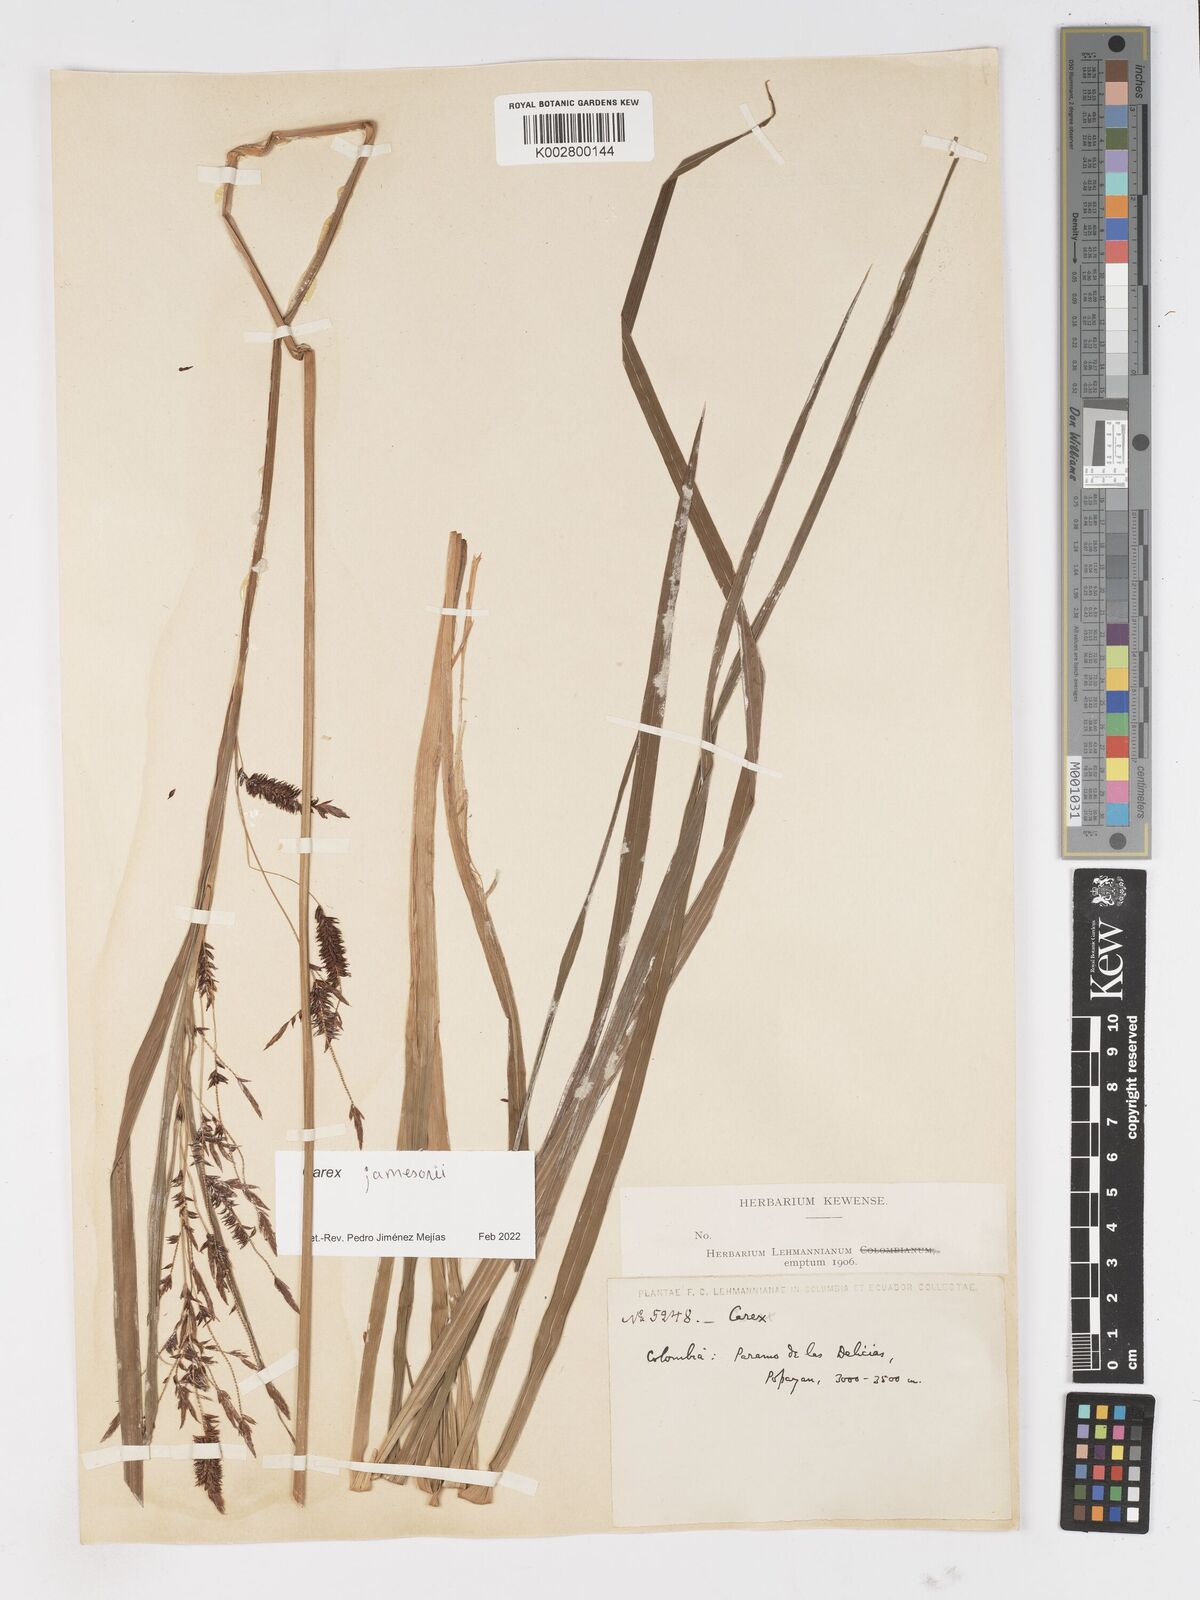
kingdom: Plantae
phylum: Tracheophyta
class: Liliopsida
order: Poales
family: Cyperaceae
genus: Carex
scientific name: Carex jamesonii
